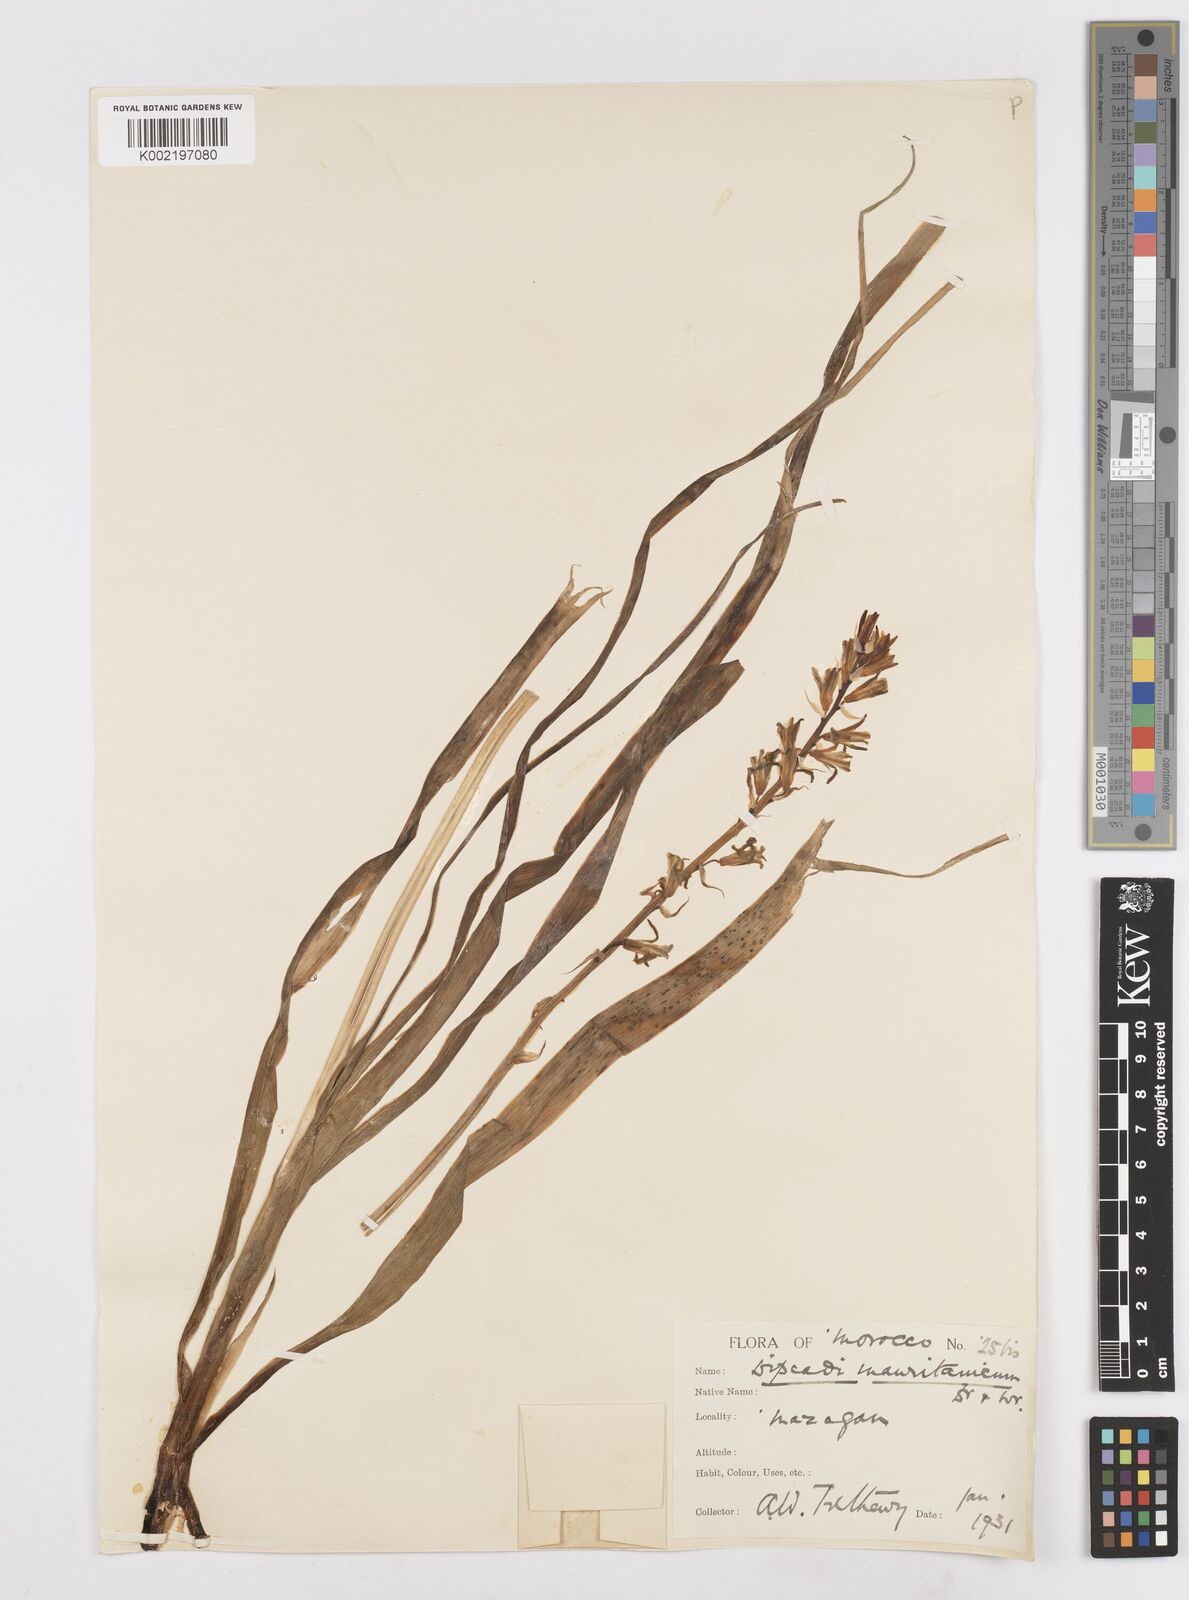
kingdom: Plantae
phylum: Tracheophyta
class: Liliopsida
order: Asparagales
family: Asparagaceae
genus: Dipcadi
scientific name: Dipcadi serotinum
